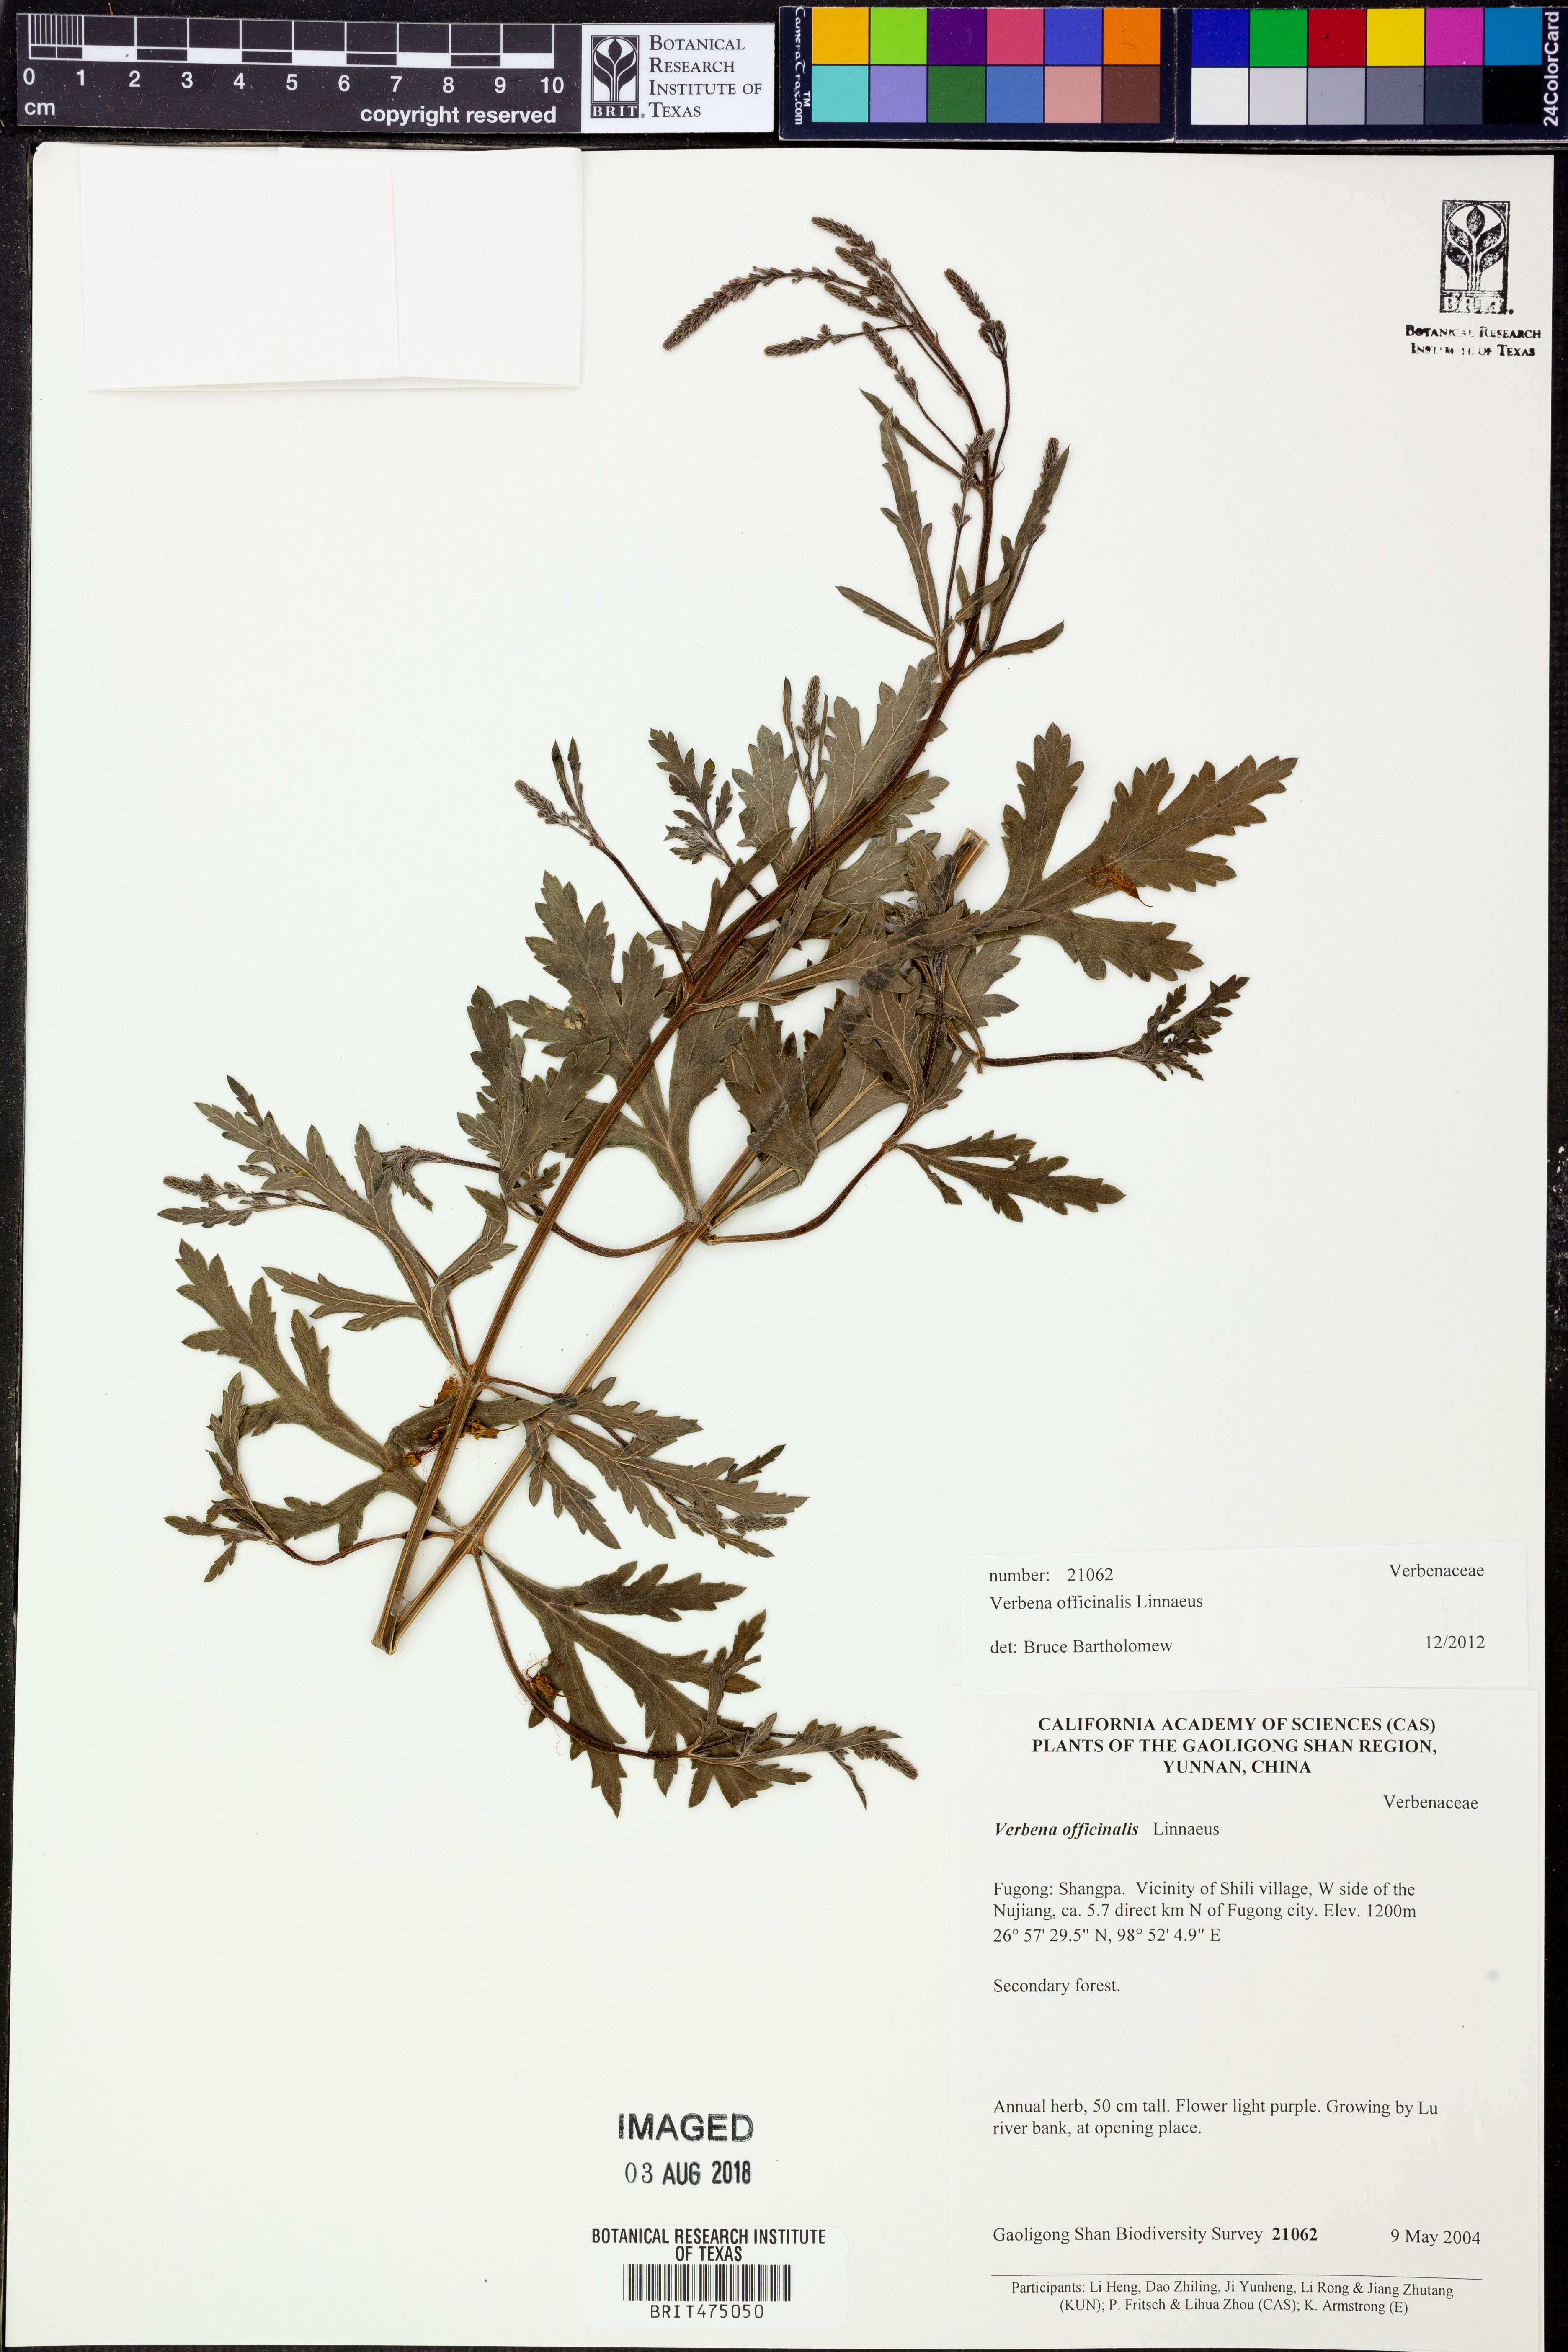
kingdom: Plantae
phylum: Tracheophyta
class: Magnoliopsida
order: Lamiales
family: Verbenaceae
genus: Verbena
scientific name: Verbena officinalis
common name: Vervain
